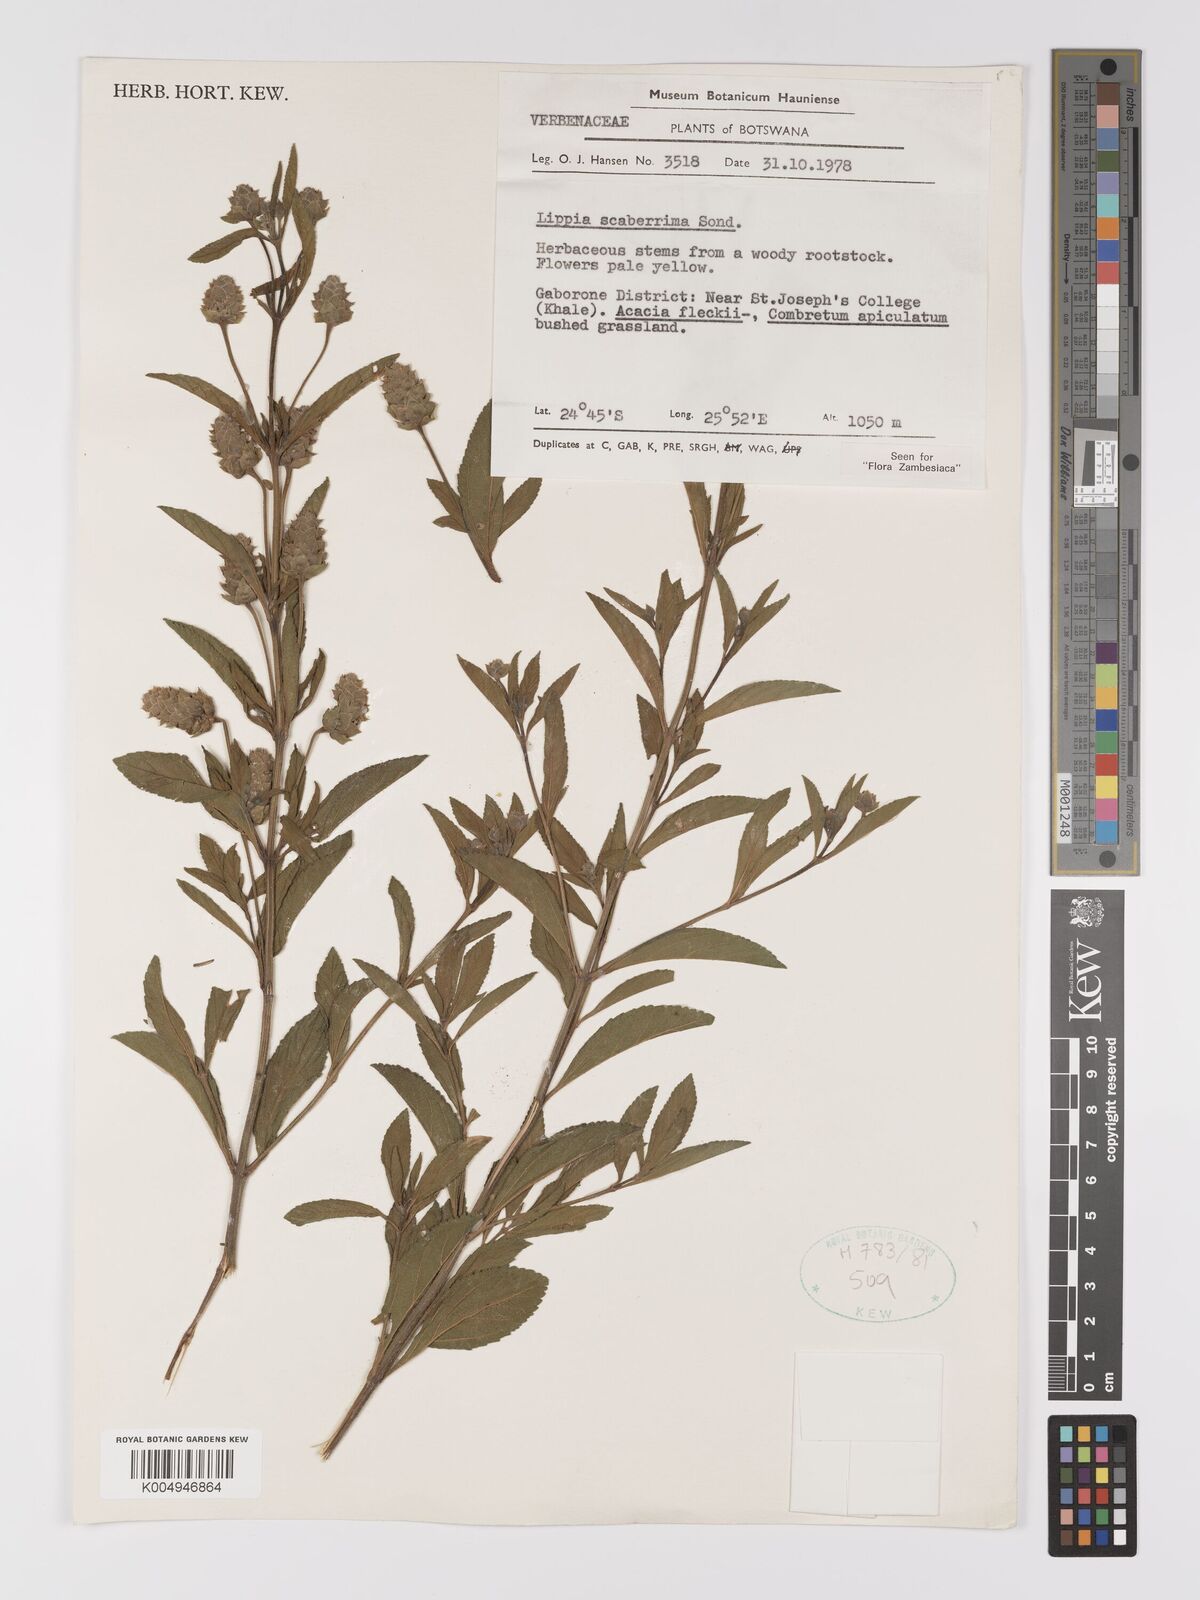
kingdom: Plantae
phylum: Tracheophyta
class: Magnoliopsida
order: Lamiales
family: Verbenaceae
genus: Lippia
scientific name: Lippia scaberrima
